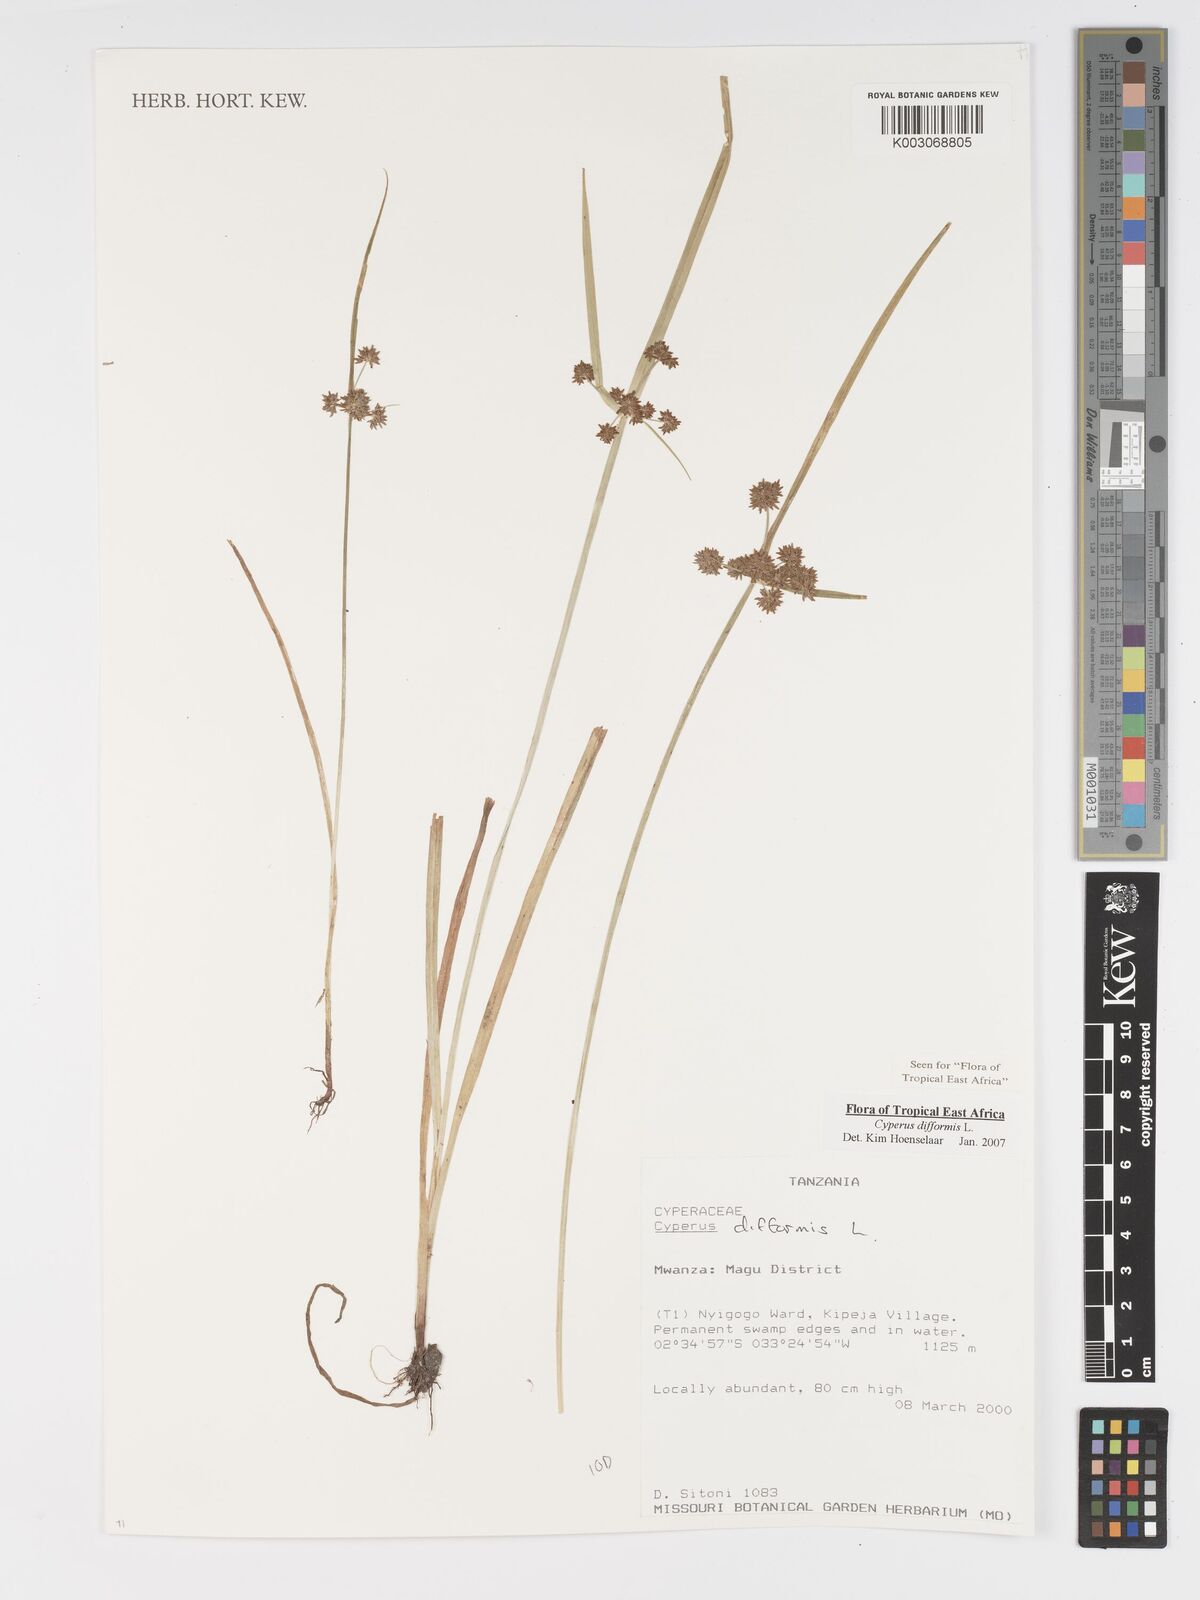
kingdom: Plantae
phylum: Tracheophyta
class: Liliopsida
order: Poales
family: Cyperaceae
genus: Cyperus
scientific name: Cyperus difformis
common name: Variable flatsedge
